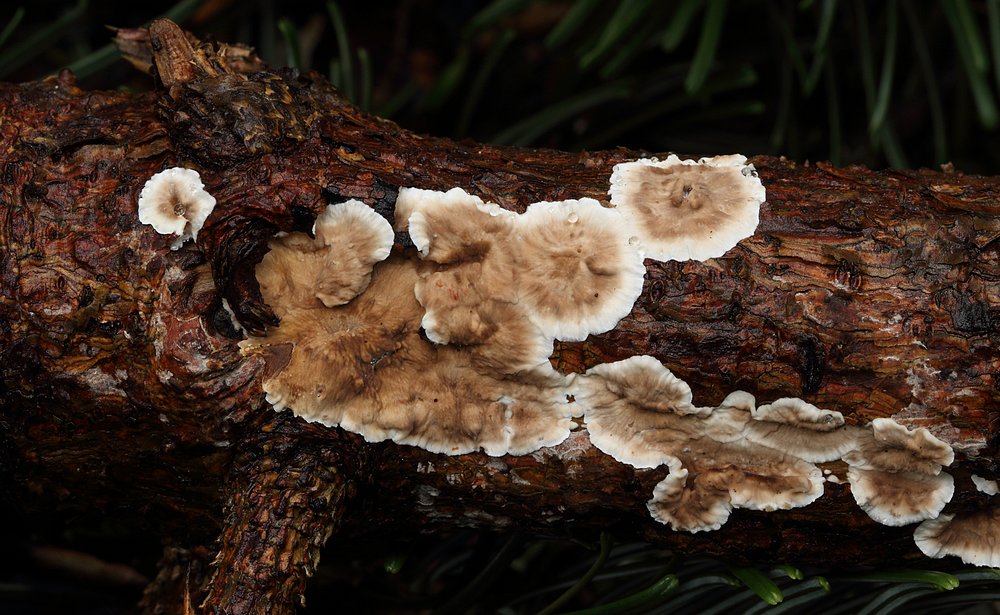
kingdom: Fungi
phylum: Basidiomycota
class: Agaricomycetes
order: Russulales
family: Stereaceae
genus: Stereum
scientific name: Stereum sanguinolentum
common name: blødende lædersvamp
